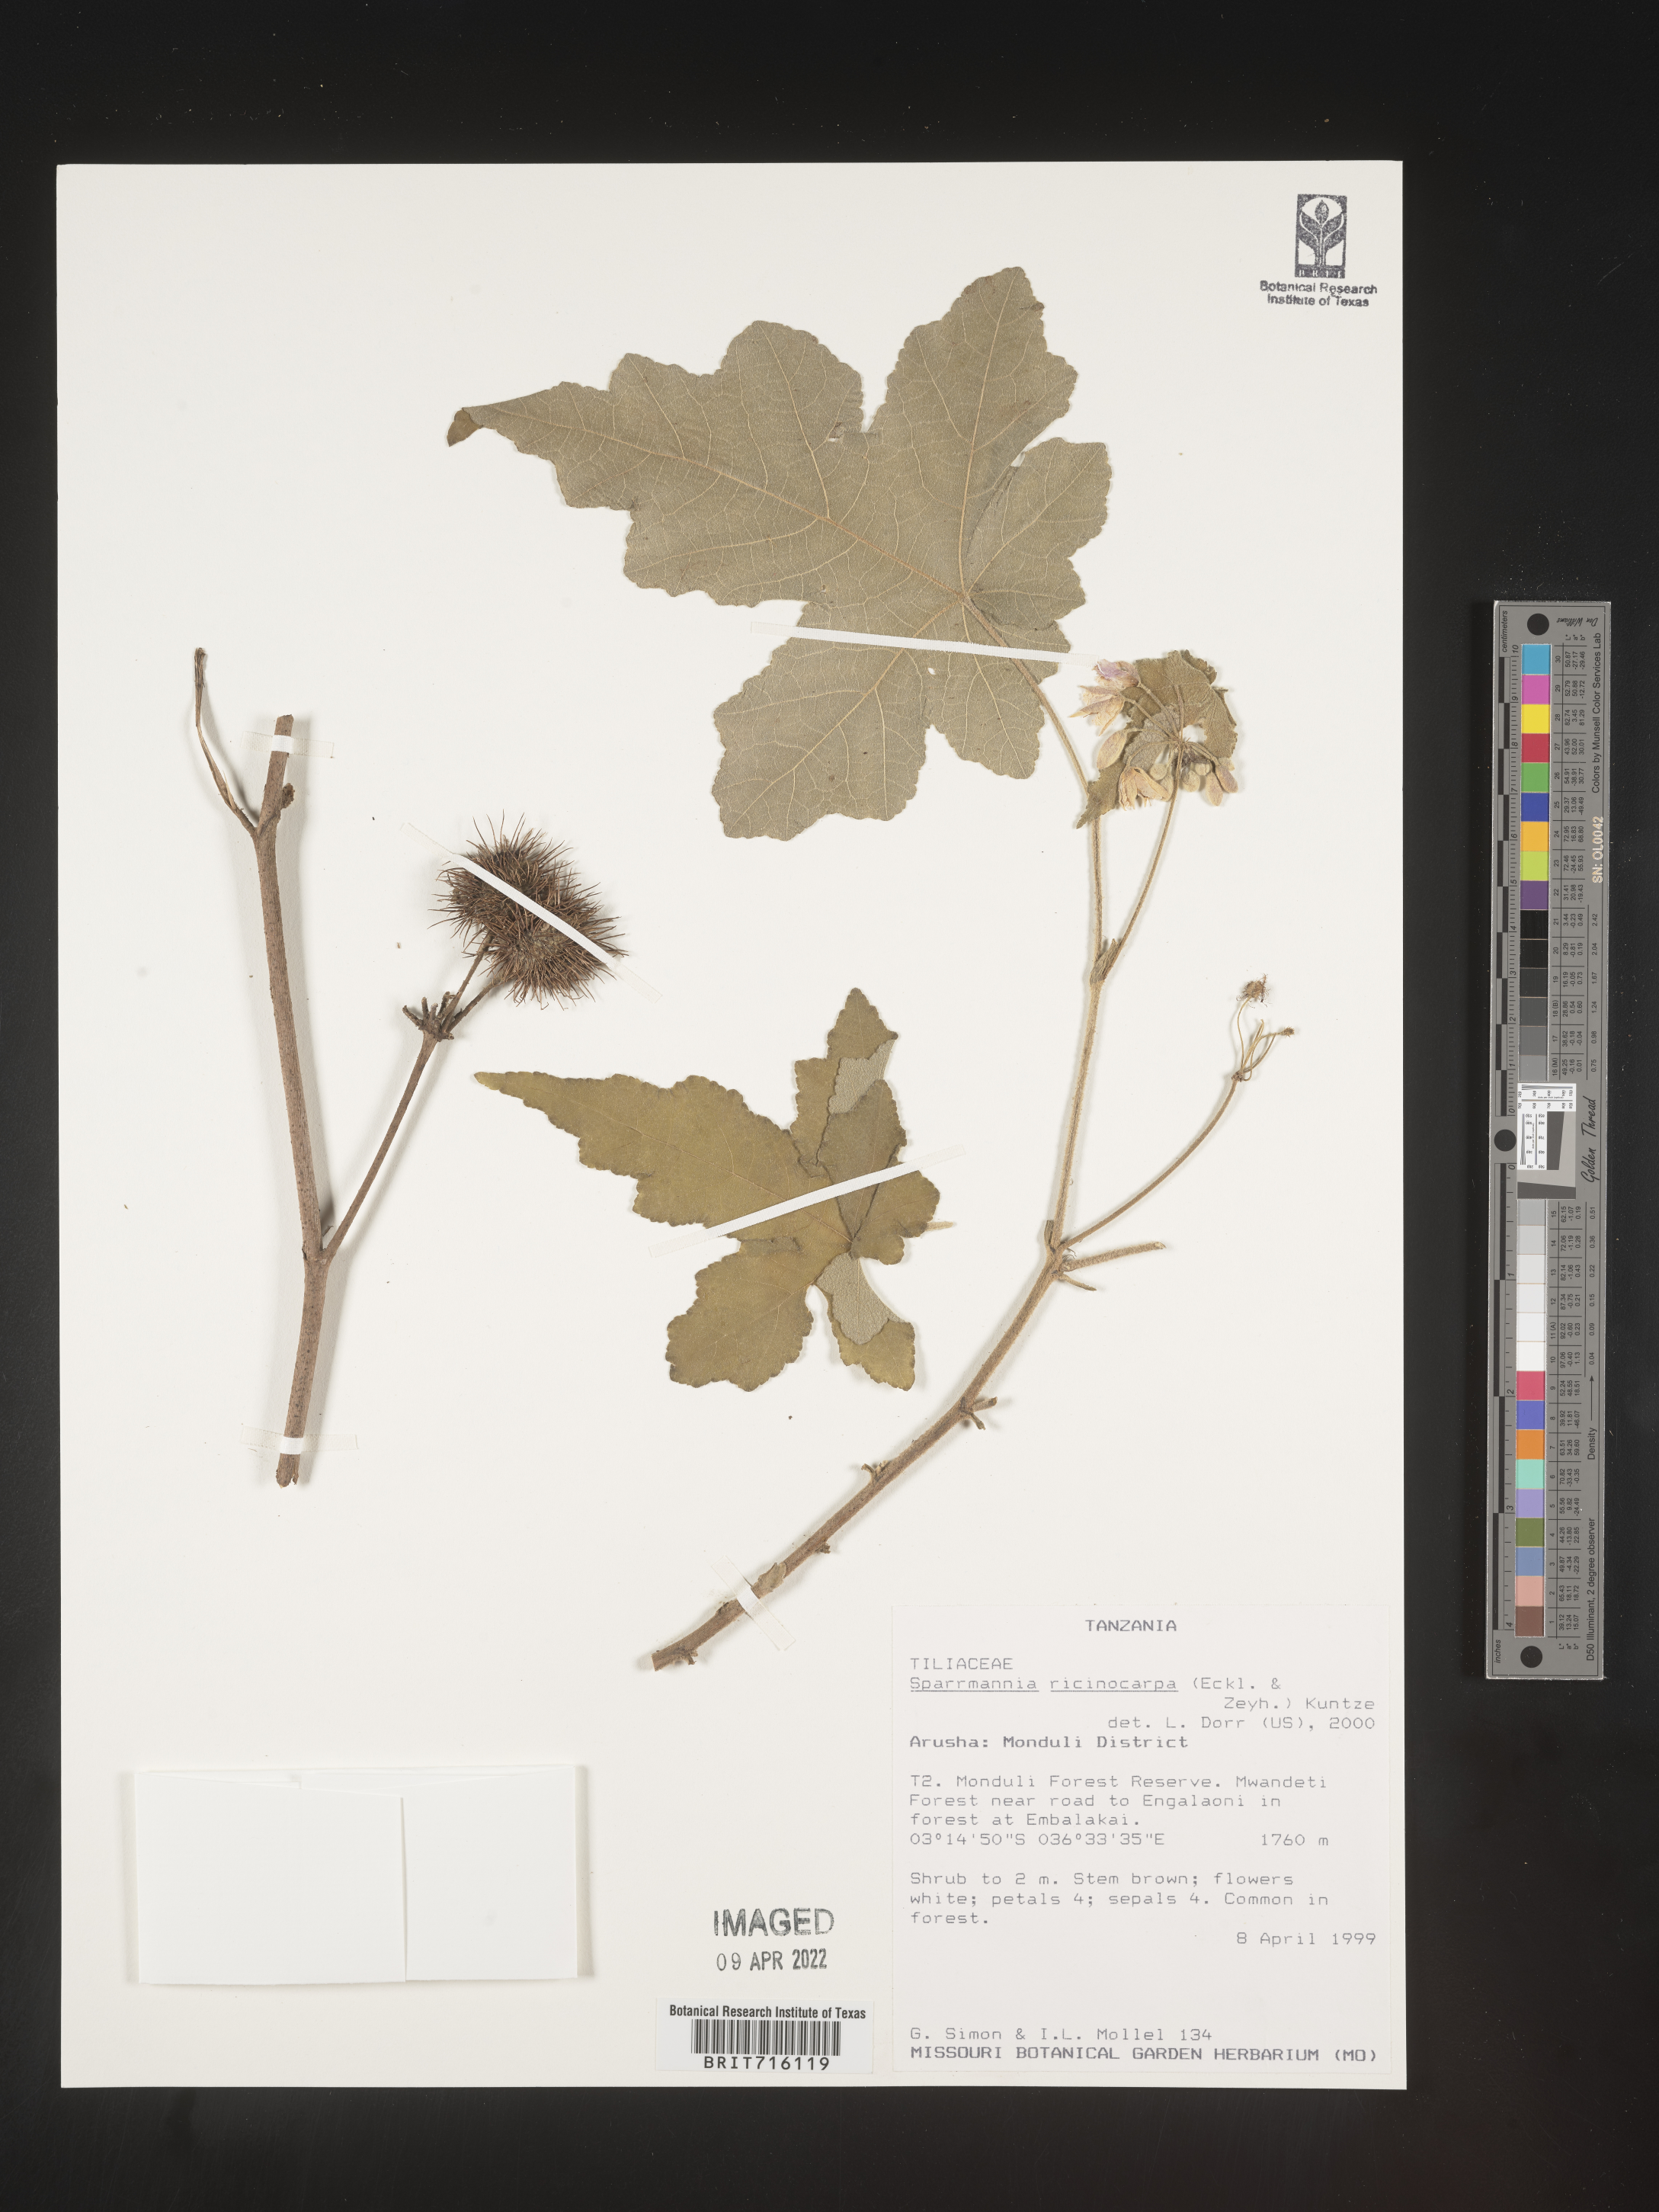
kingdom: Plantae
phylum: Tracheophyta
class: Magnoliopsida
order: Malvales
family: Malvaceae
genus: Sparrmannia
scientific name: Sparrmannia
